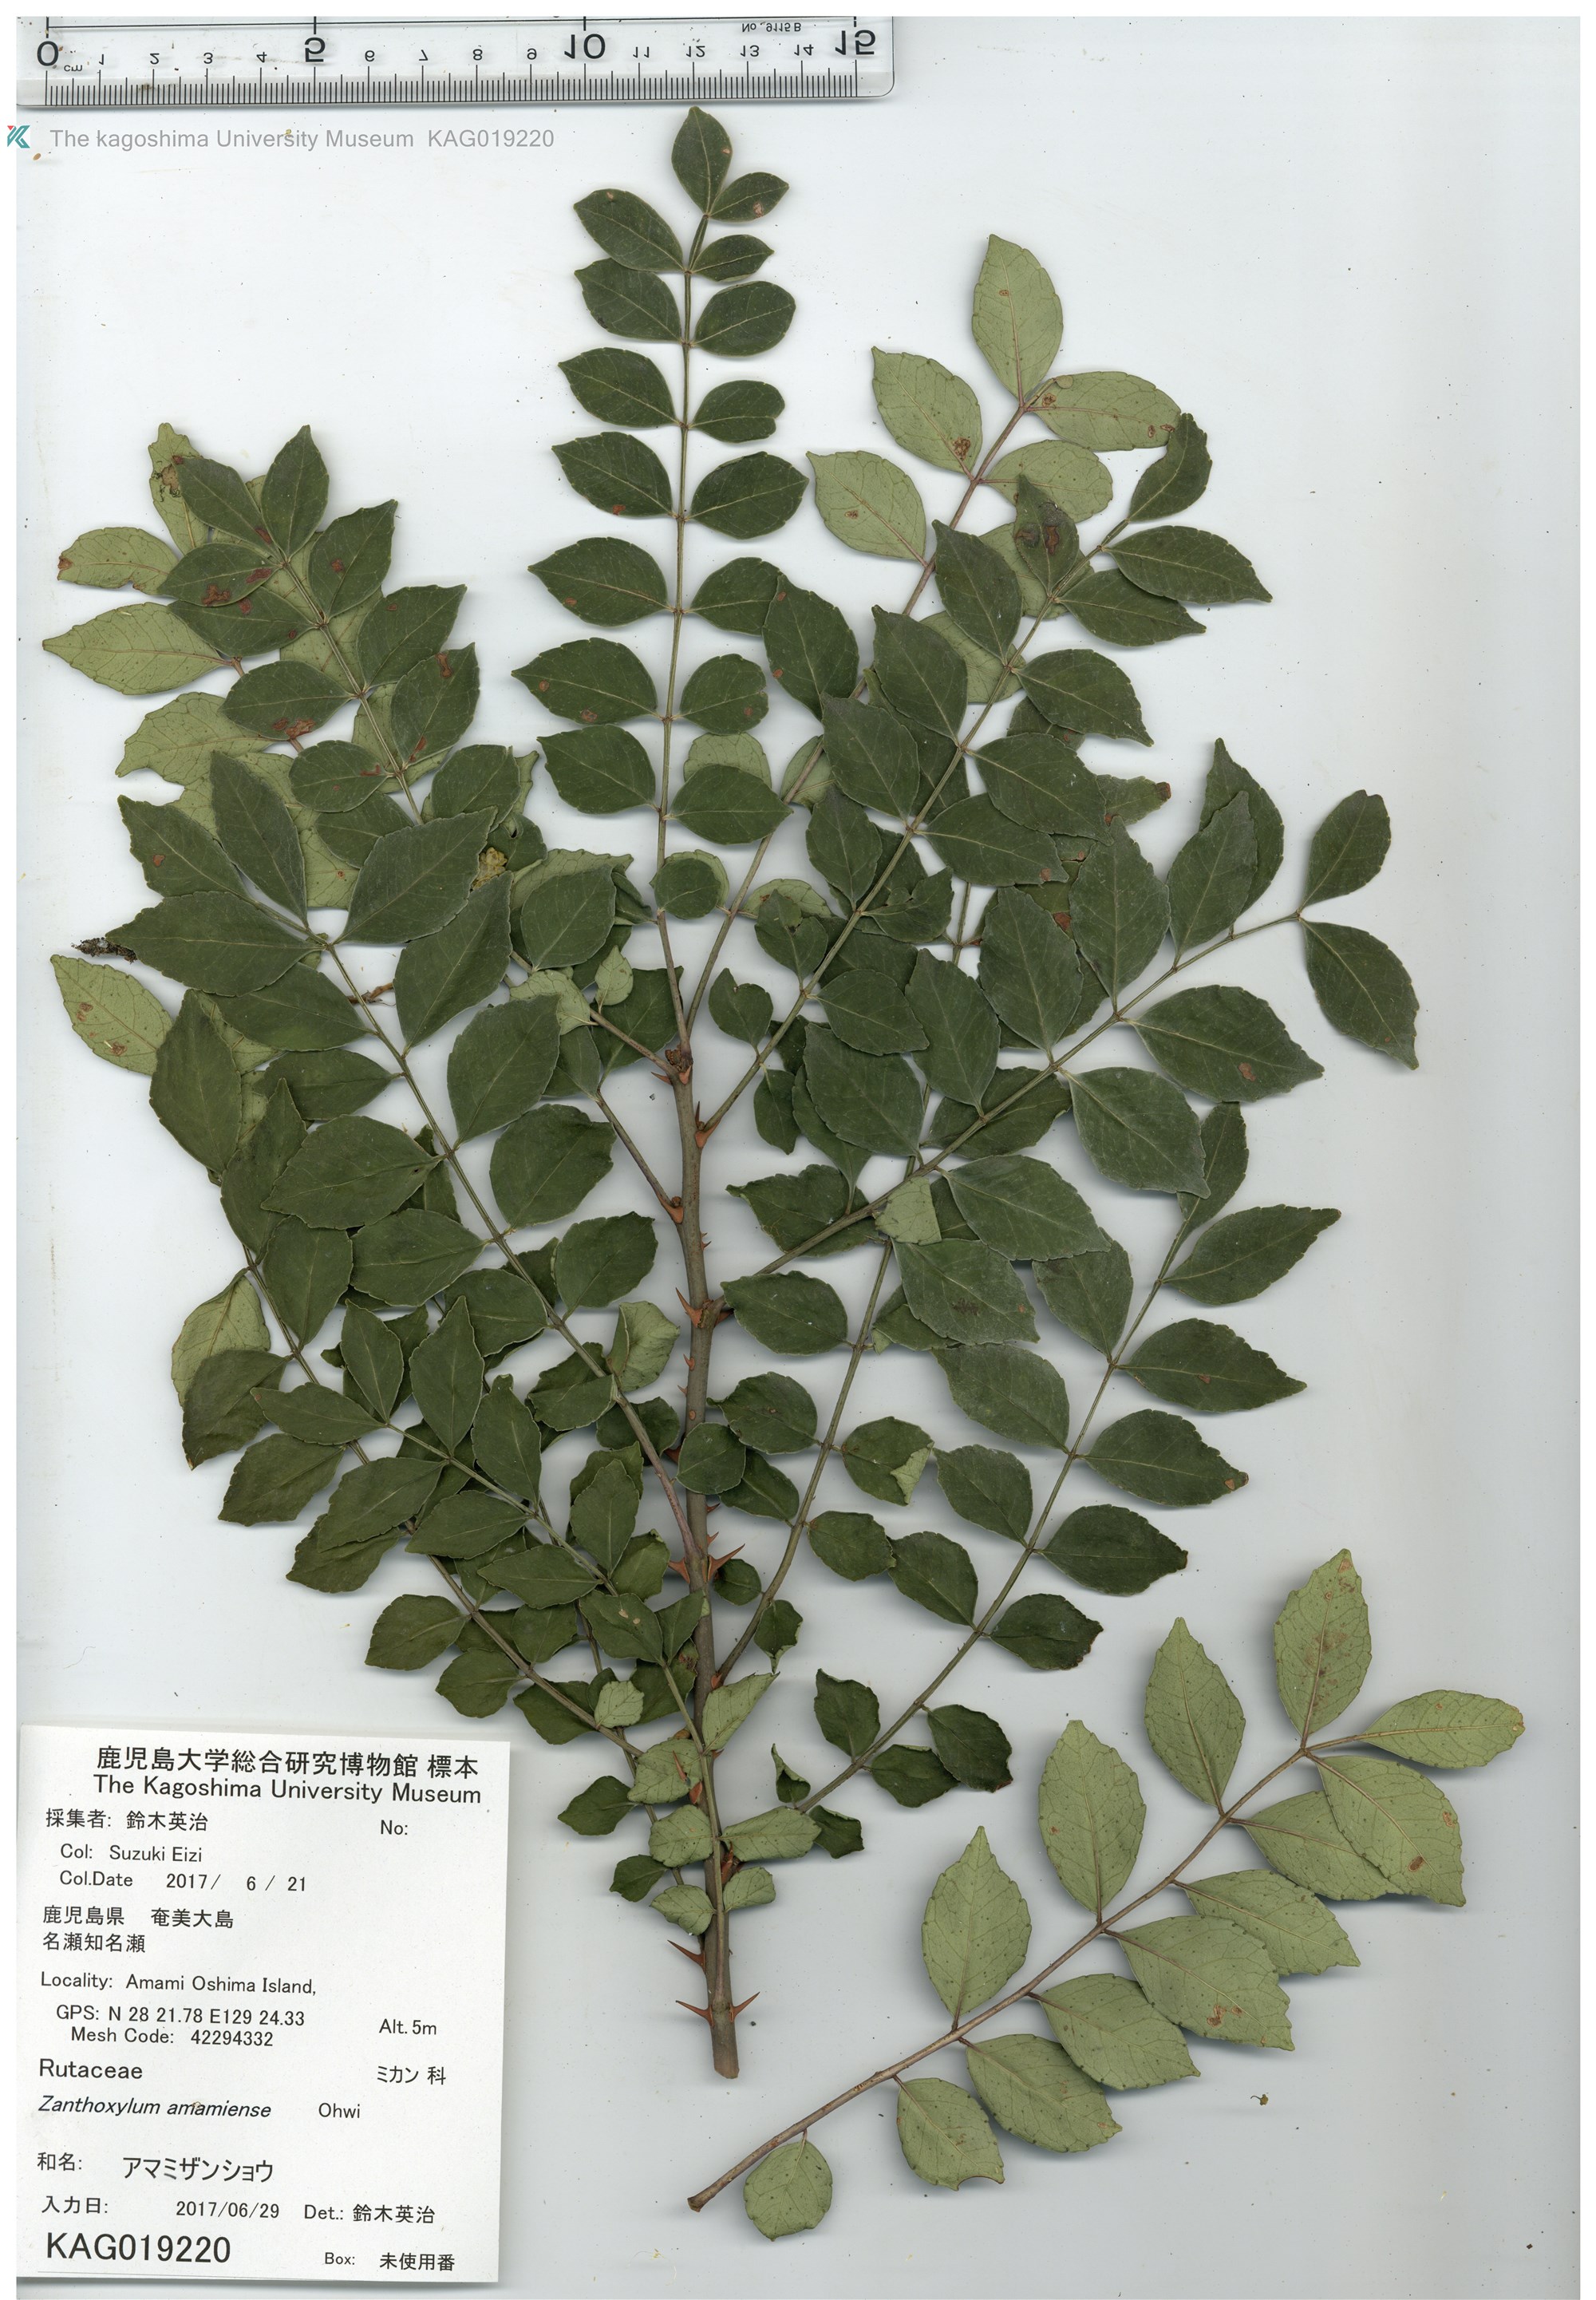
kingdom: Plantae
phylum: Tracheophyta
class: Magnoliopsida
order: Sapindales
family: Rutaceae
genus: Zanthoxylum
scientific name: Zanthoxylum amamiense
